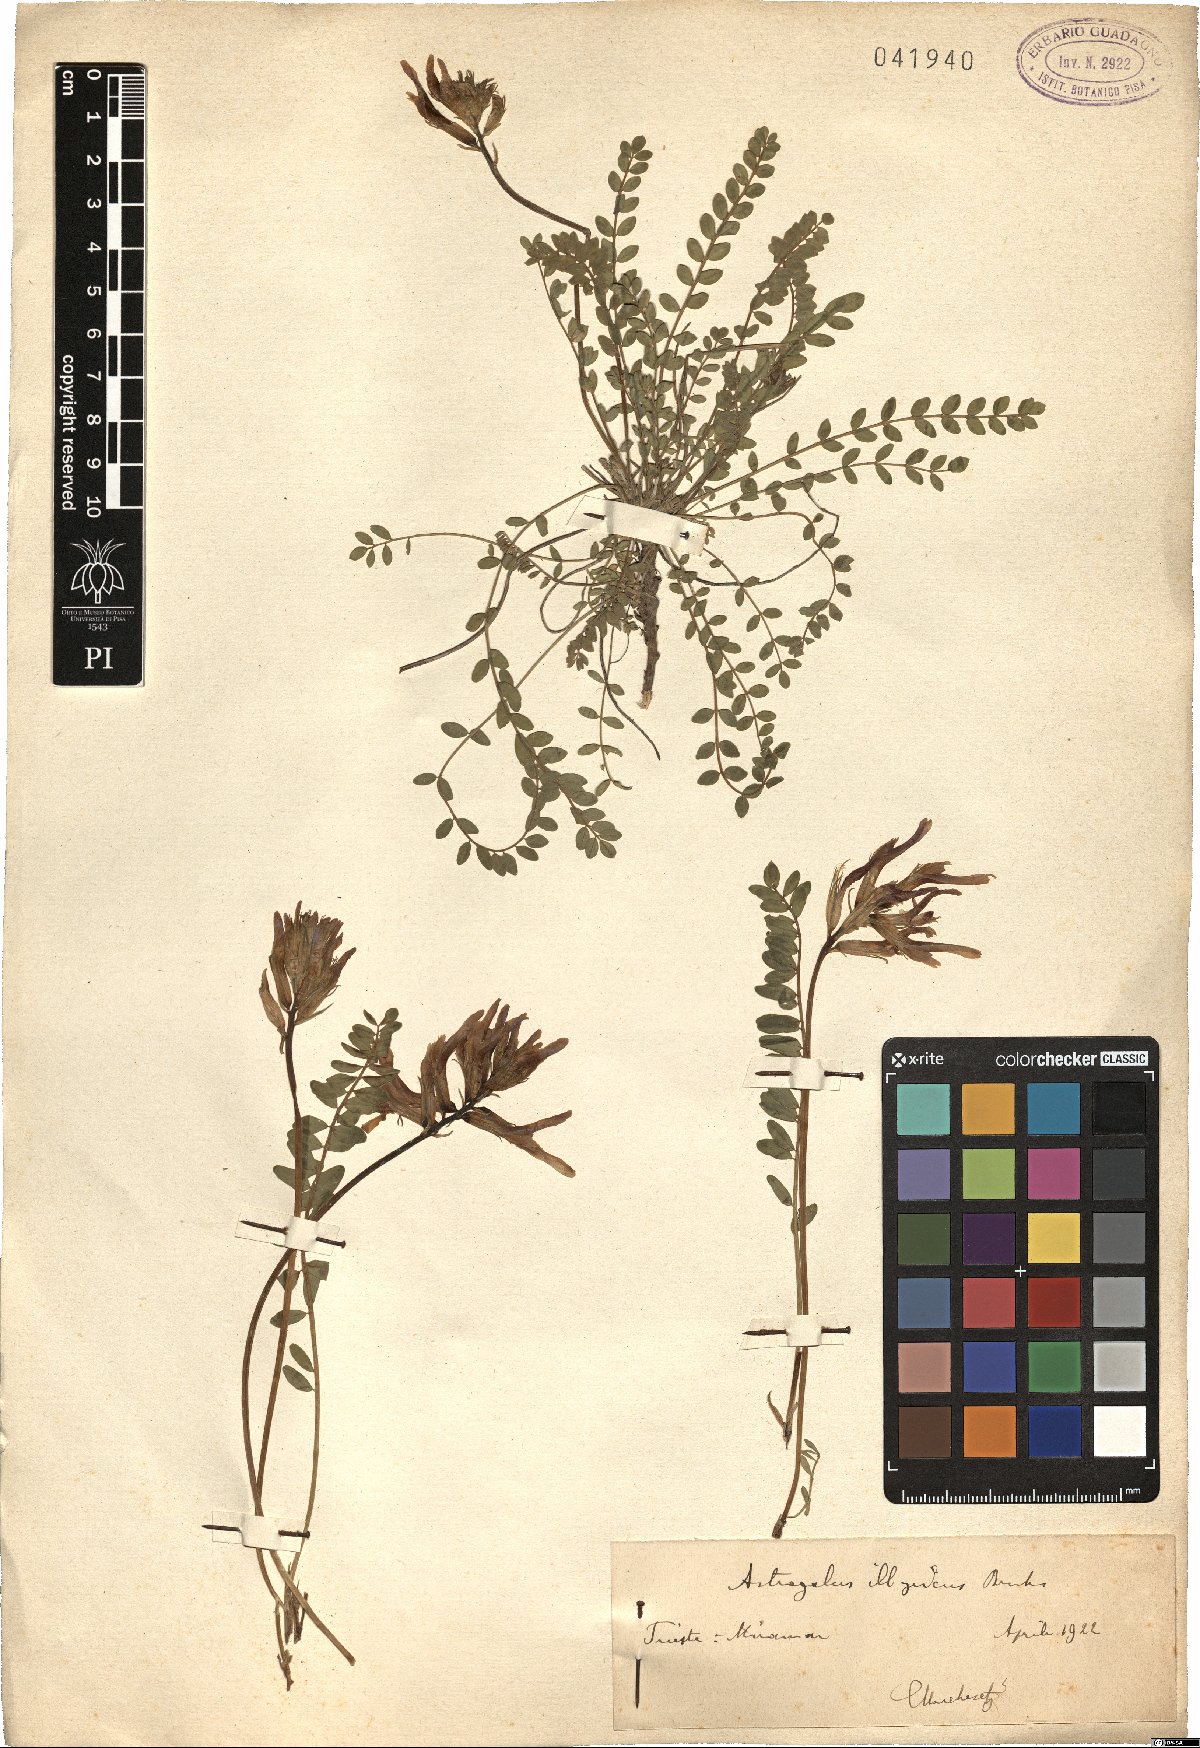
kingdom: Plantae
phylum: Tracheophyta
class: Magnoliopsida
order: Fabales
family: Fabaceae
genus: Astragalus
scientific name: Astragalus monspessulanus
